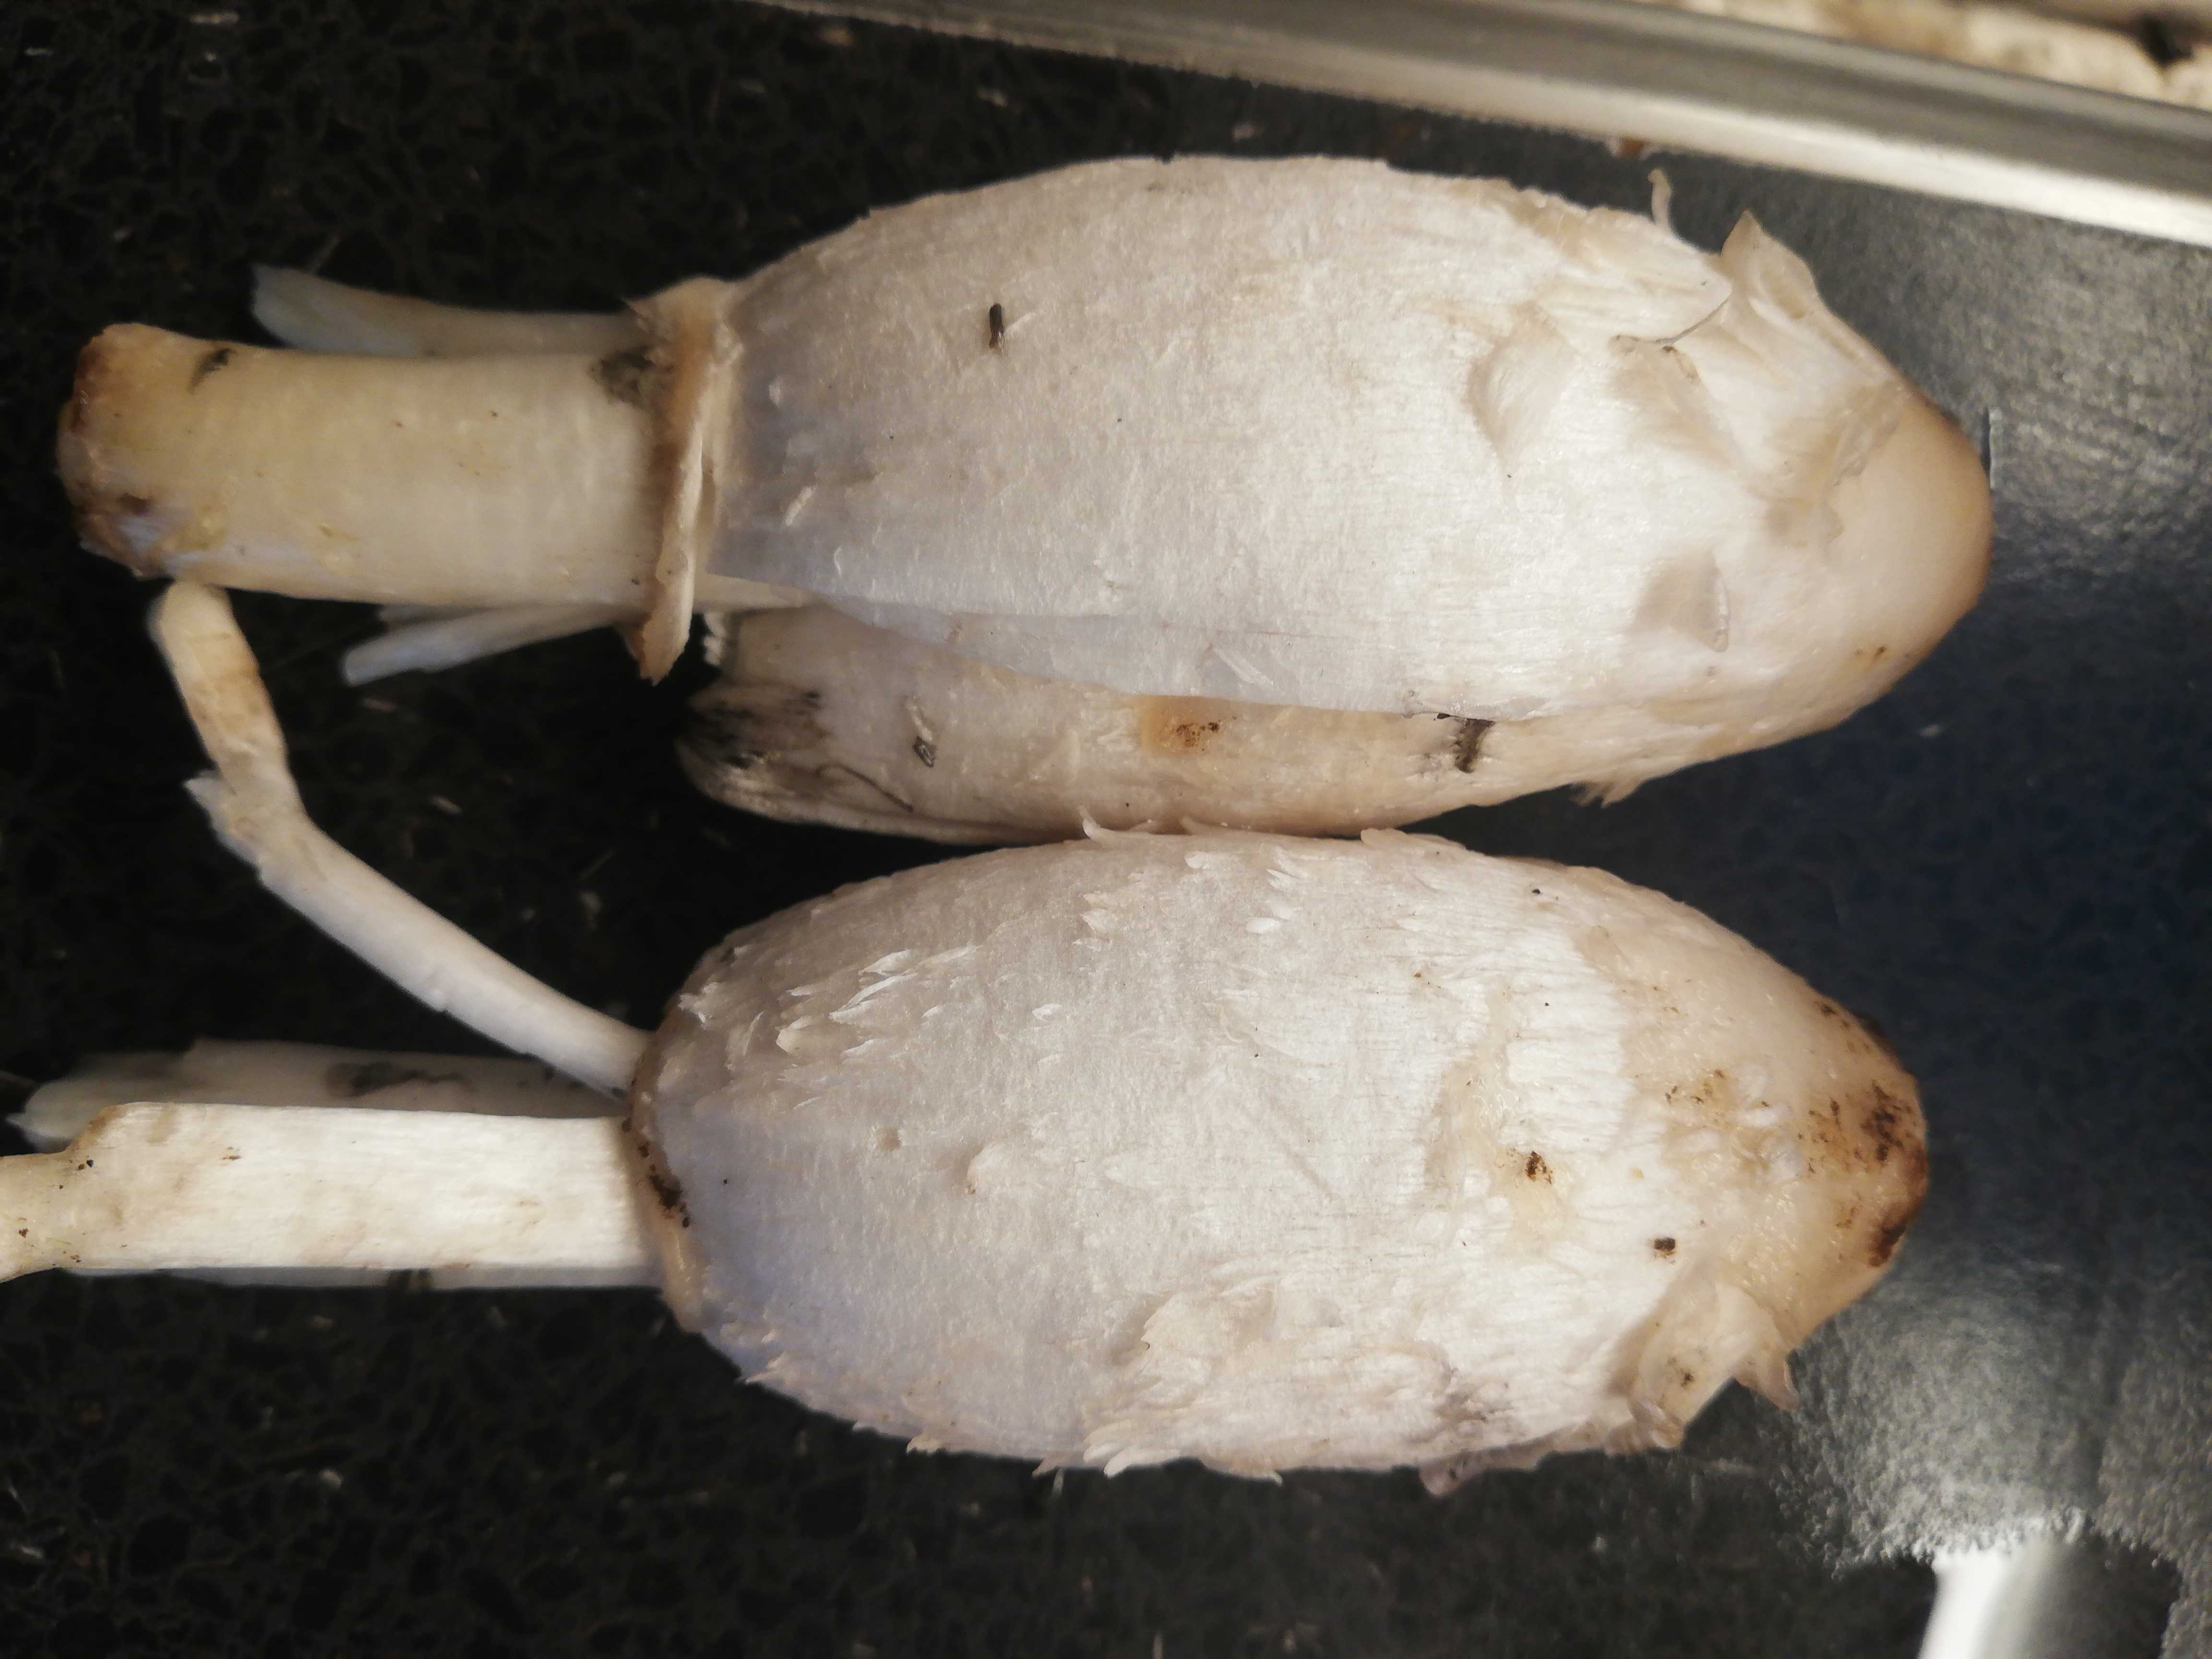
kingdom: Fungi
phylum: Basidiomycota
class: Agaricomycetes
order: Agaricales
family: Agaricaceae
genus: Coprinus
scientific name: Coprinus comatus
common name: stor parykhat
